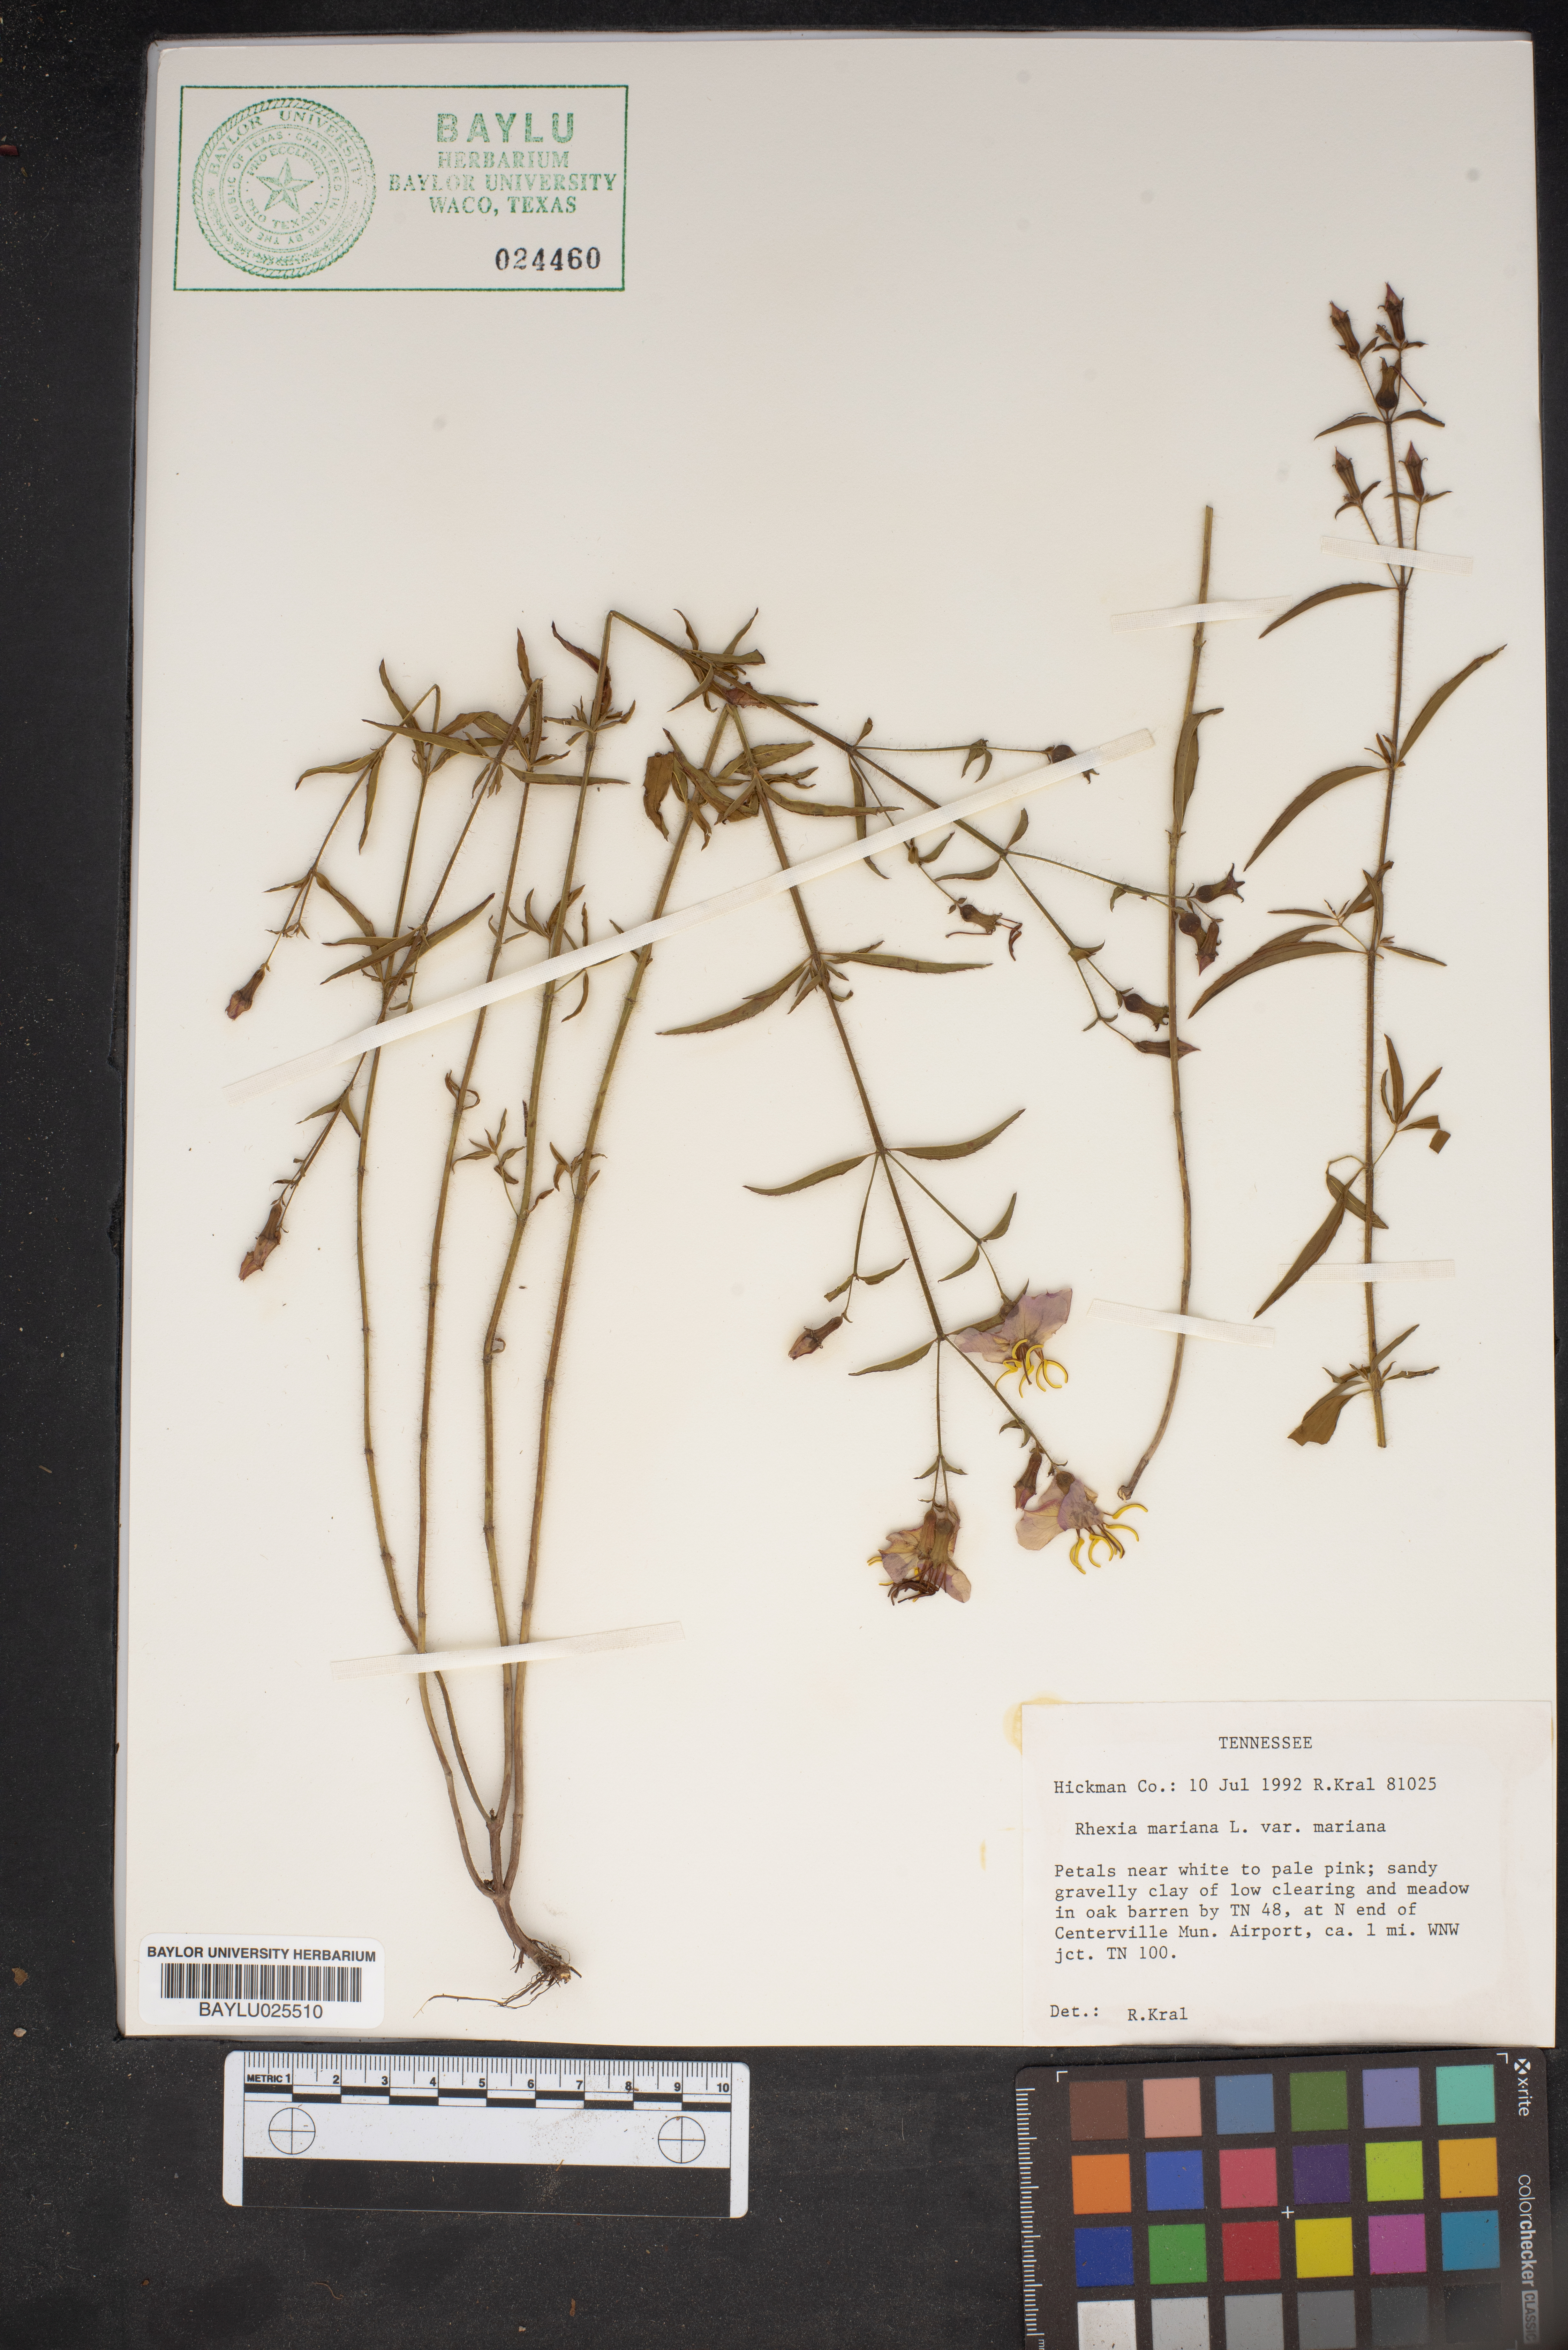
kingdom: Plantae
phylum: Tracheophyta
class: Magnoliopsida
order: Myrtales
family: Melastomataceae
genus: Rhexia
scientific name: Rhexia mariana
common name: Dull meadow-pitcher
